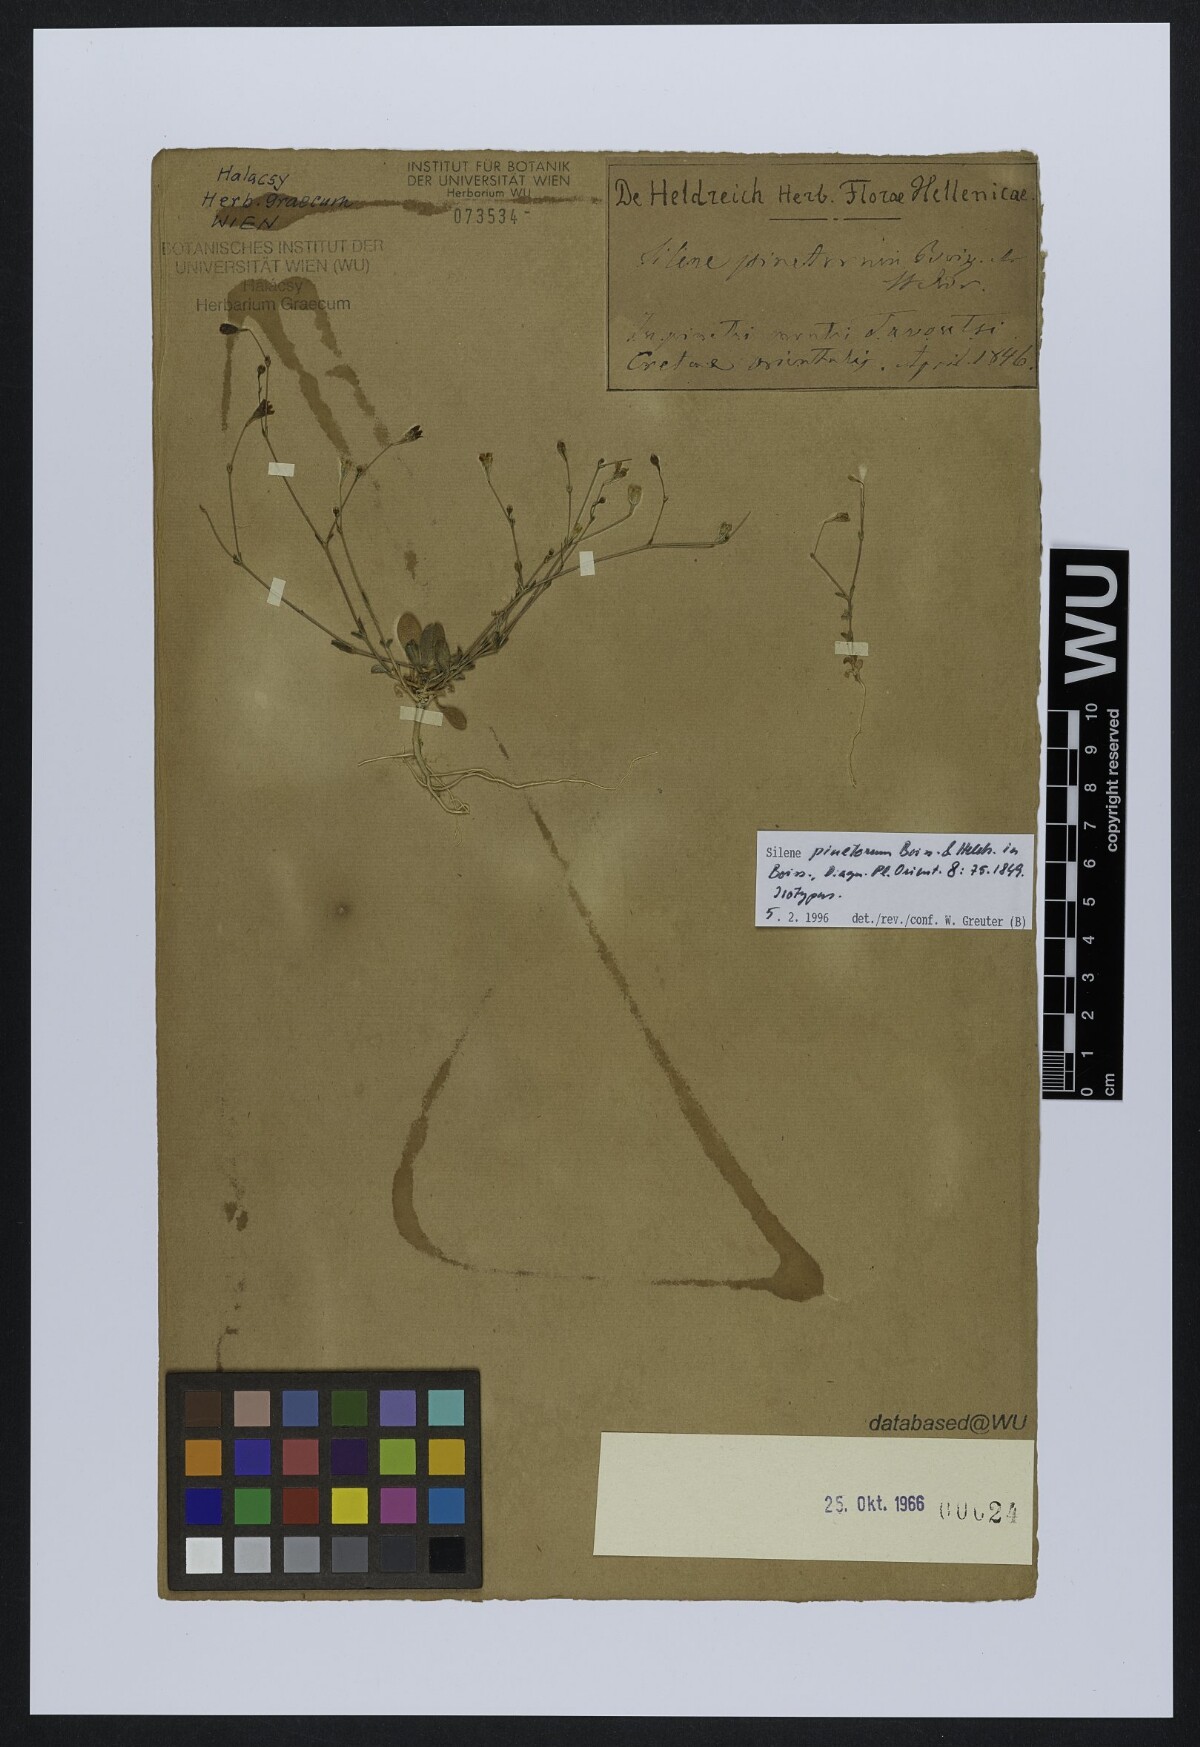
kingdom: Plantae
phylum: Tracheophyta
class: Magnoliopsida
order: Caryophyllales
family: Caryophyllaceae
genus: Silene
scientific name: Silene pinetorum
